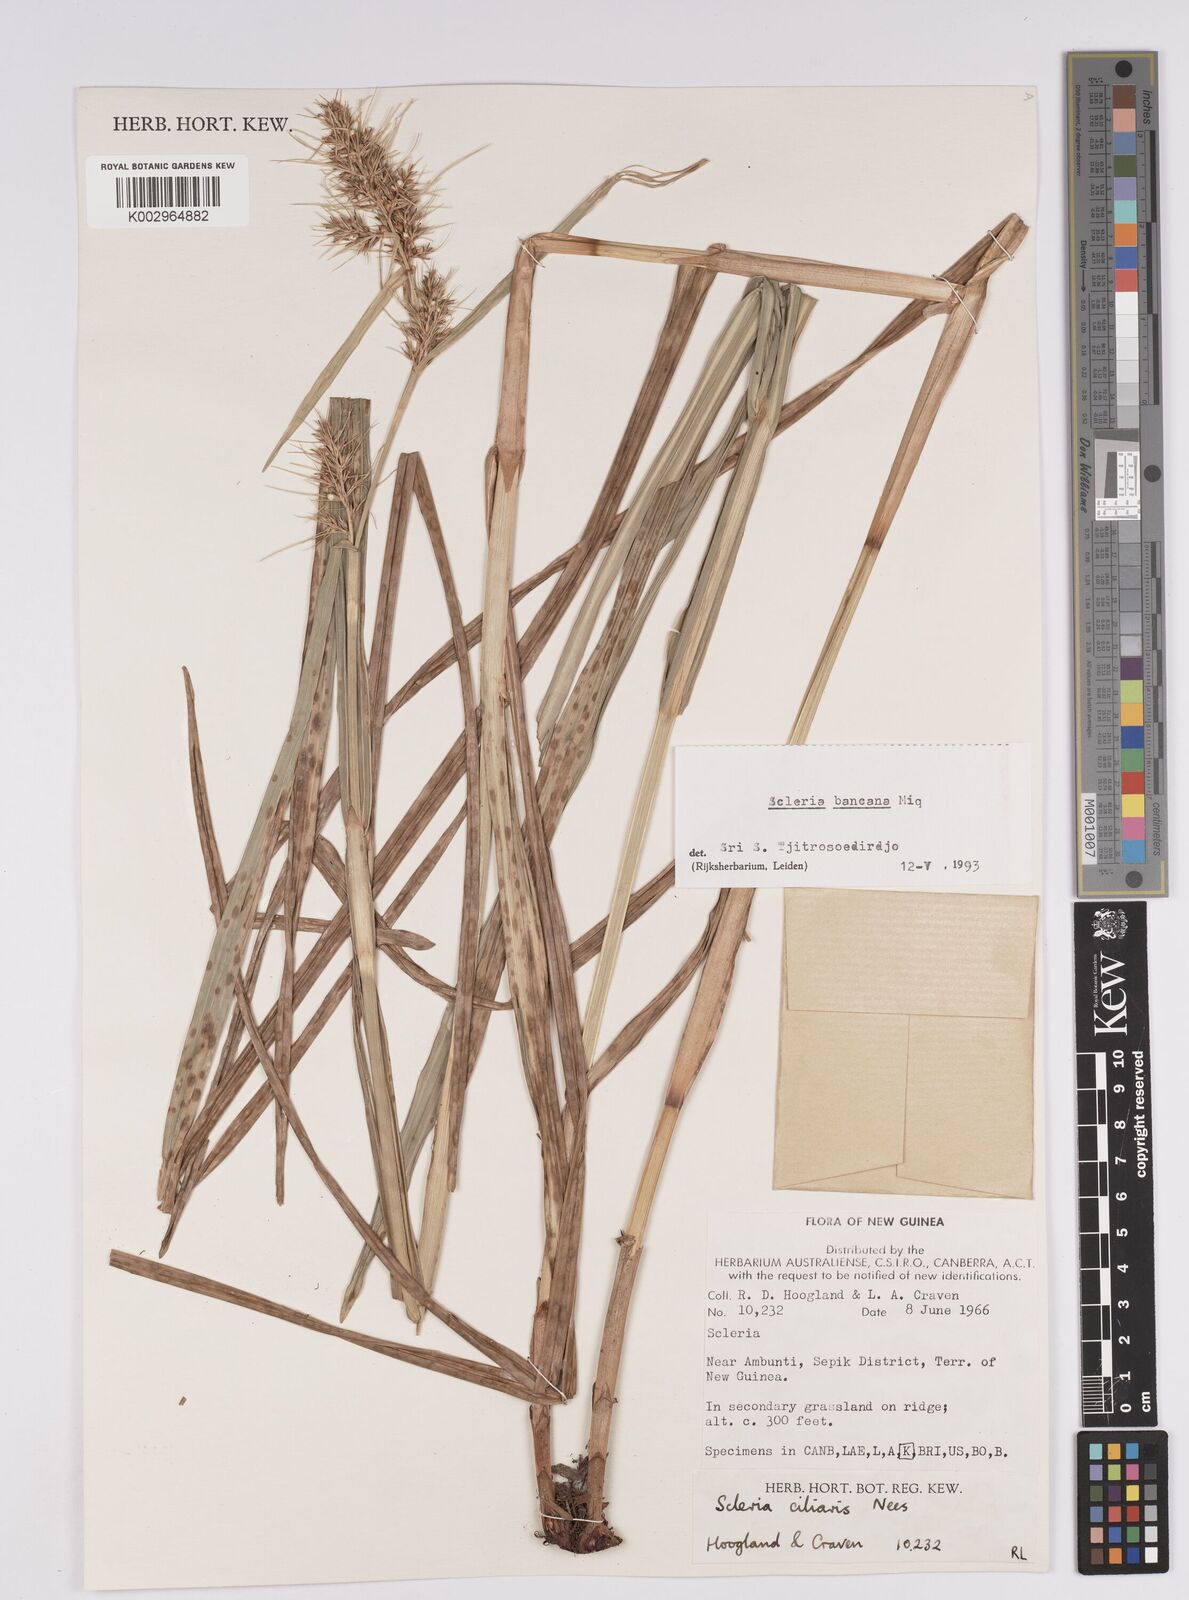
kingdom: Plantae
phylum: Tracheophyta
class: Liliopsida
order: Poales
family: Cyperaceae
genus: Scleria
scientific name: Scleria ciliaris
